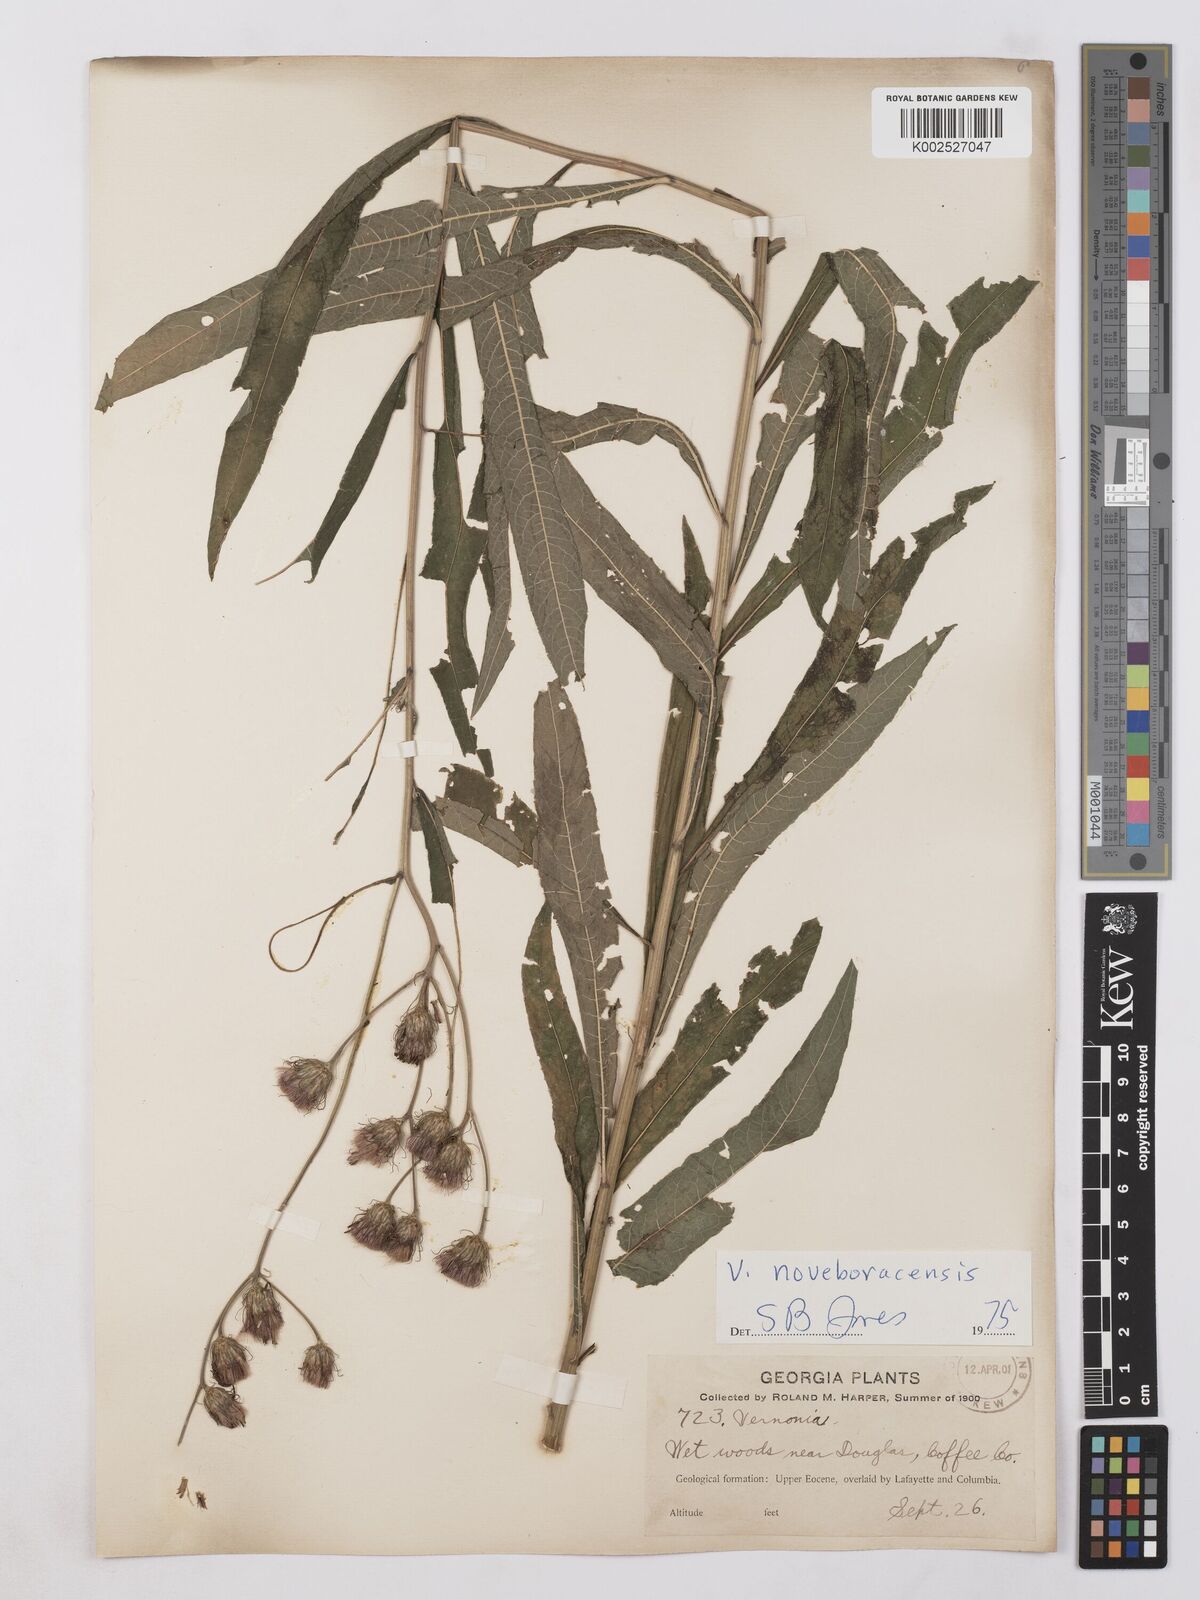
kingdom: Plantae
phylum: Tracheophyta
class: Magnoliopsida
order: Asterales
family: Asteraceae
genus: Vernonia
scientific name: Vernonia noveboracensis
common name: New york ironweed
